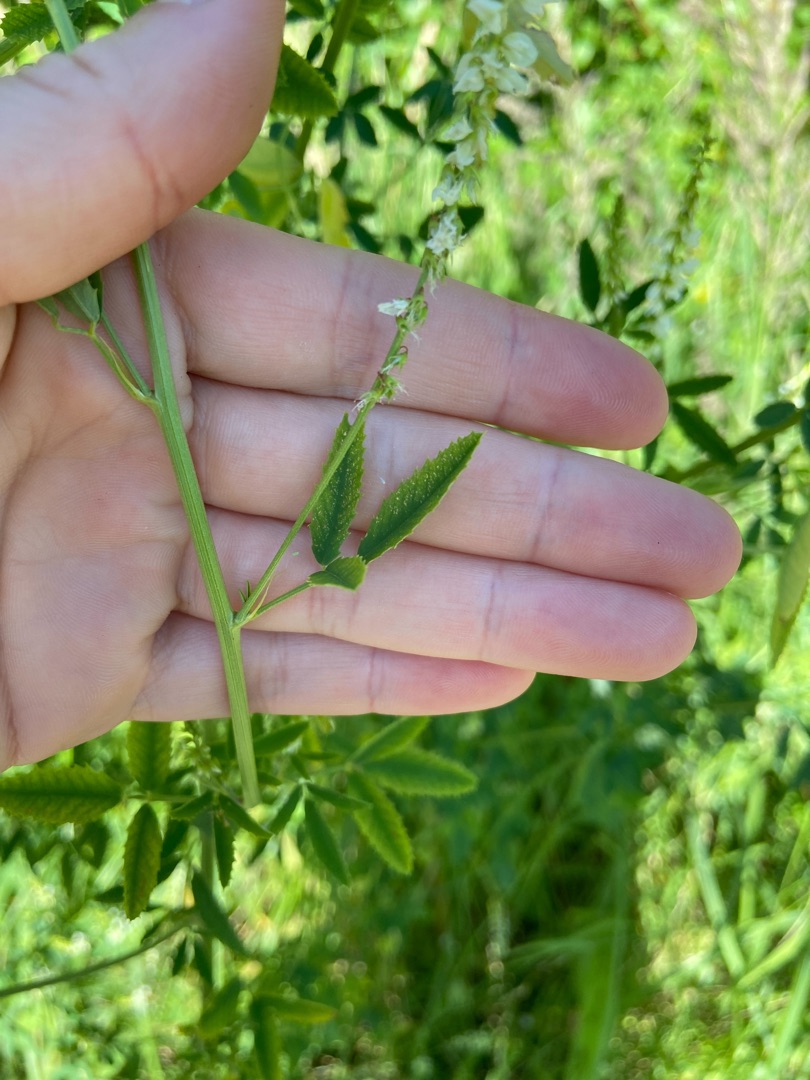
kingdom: Plantae
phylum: Tracheophyta
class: Magnoliopsida
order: Fabales
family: Fabaceae
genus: Melilotus
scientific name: Melilotus albus
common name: Hvid stenkløver
